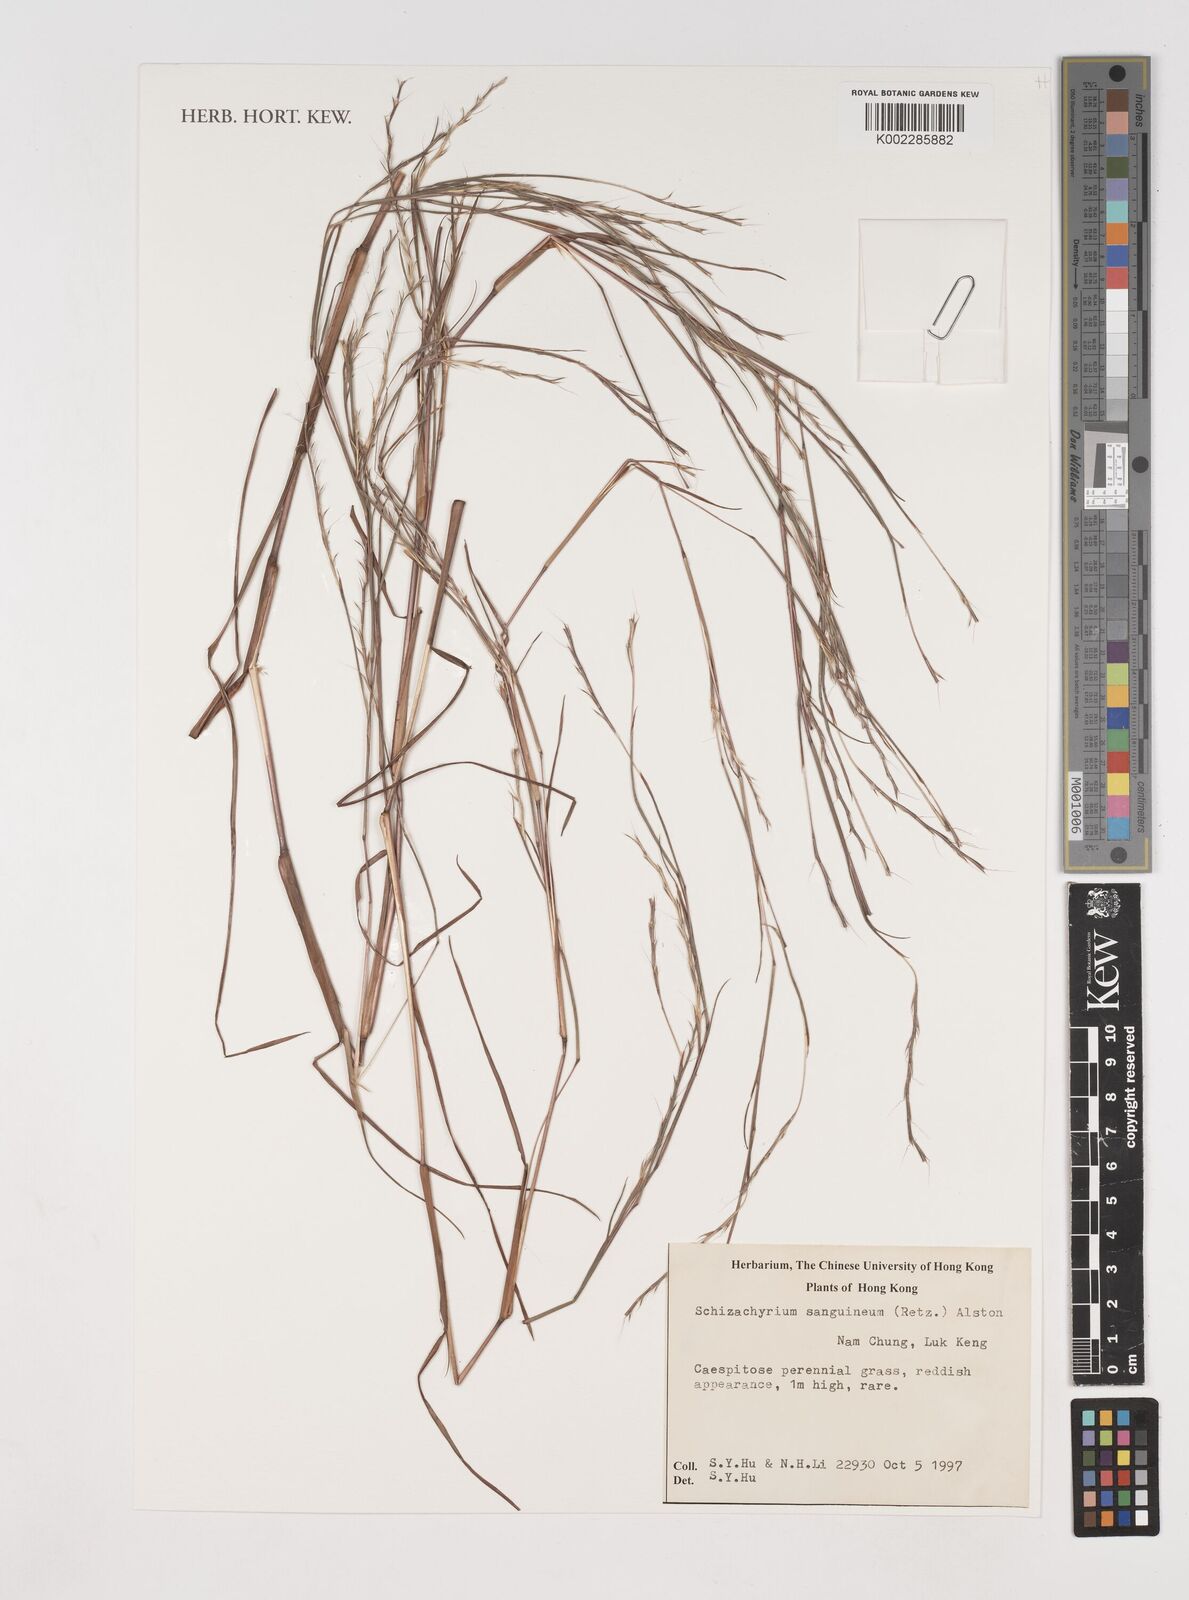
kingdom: Plantae
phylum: Tracheophyta
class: Liliopsida
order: Poales
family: Poaceae
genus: Schizachyrium
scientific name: Schizachyrium sanguineum
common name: Crimson bluestem
